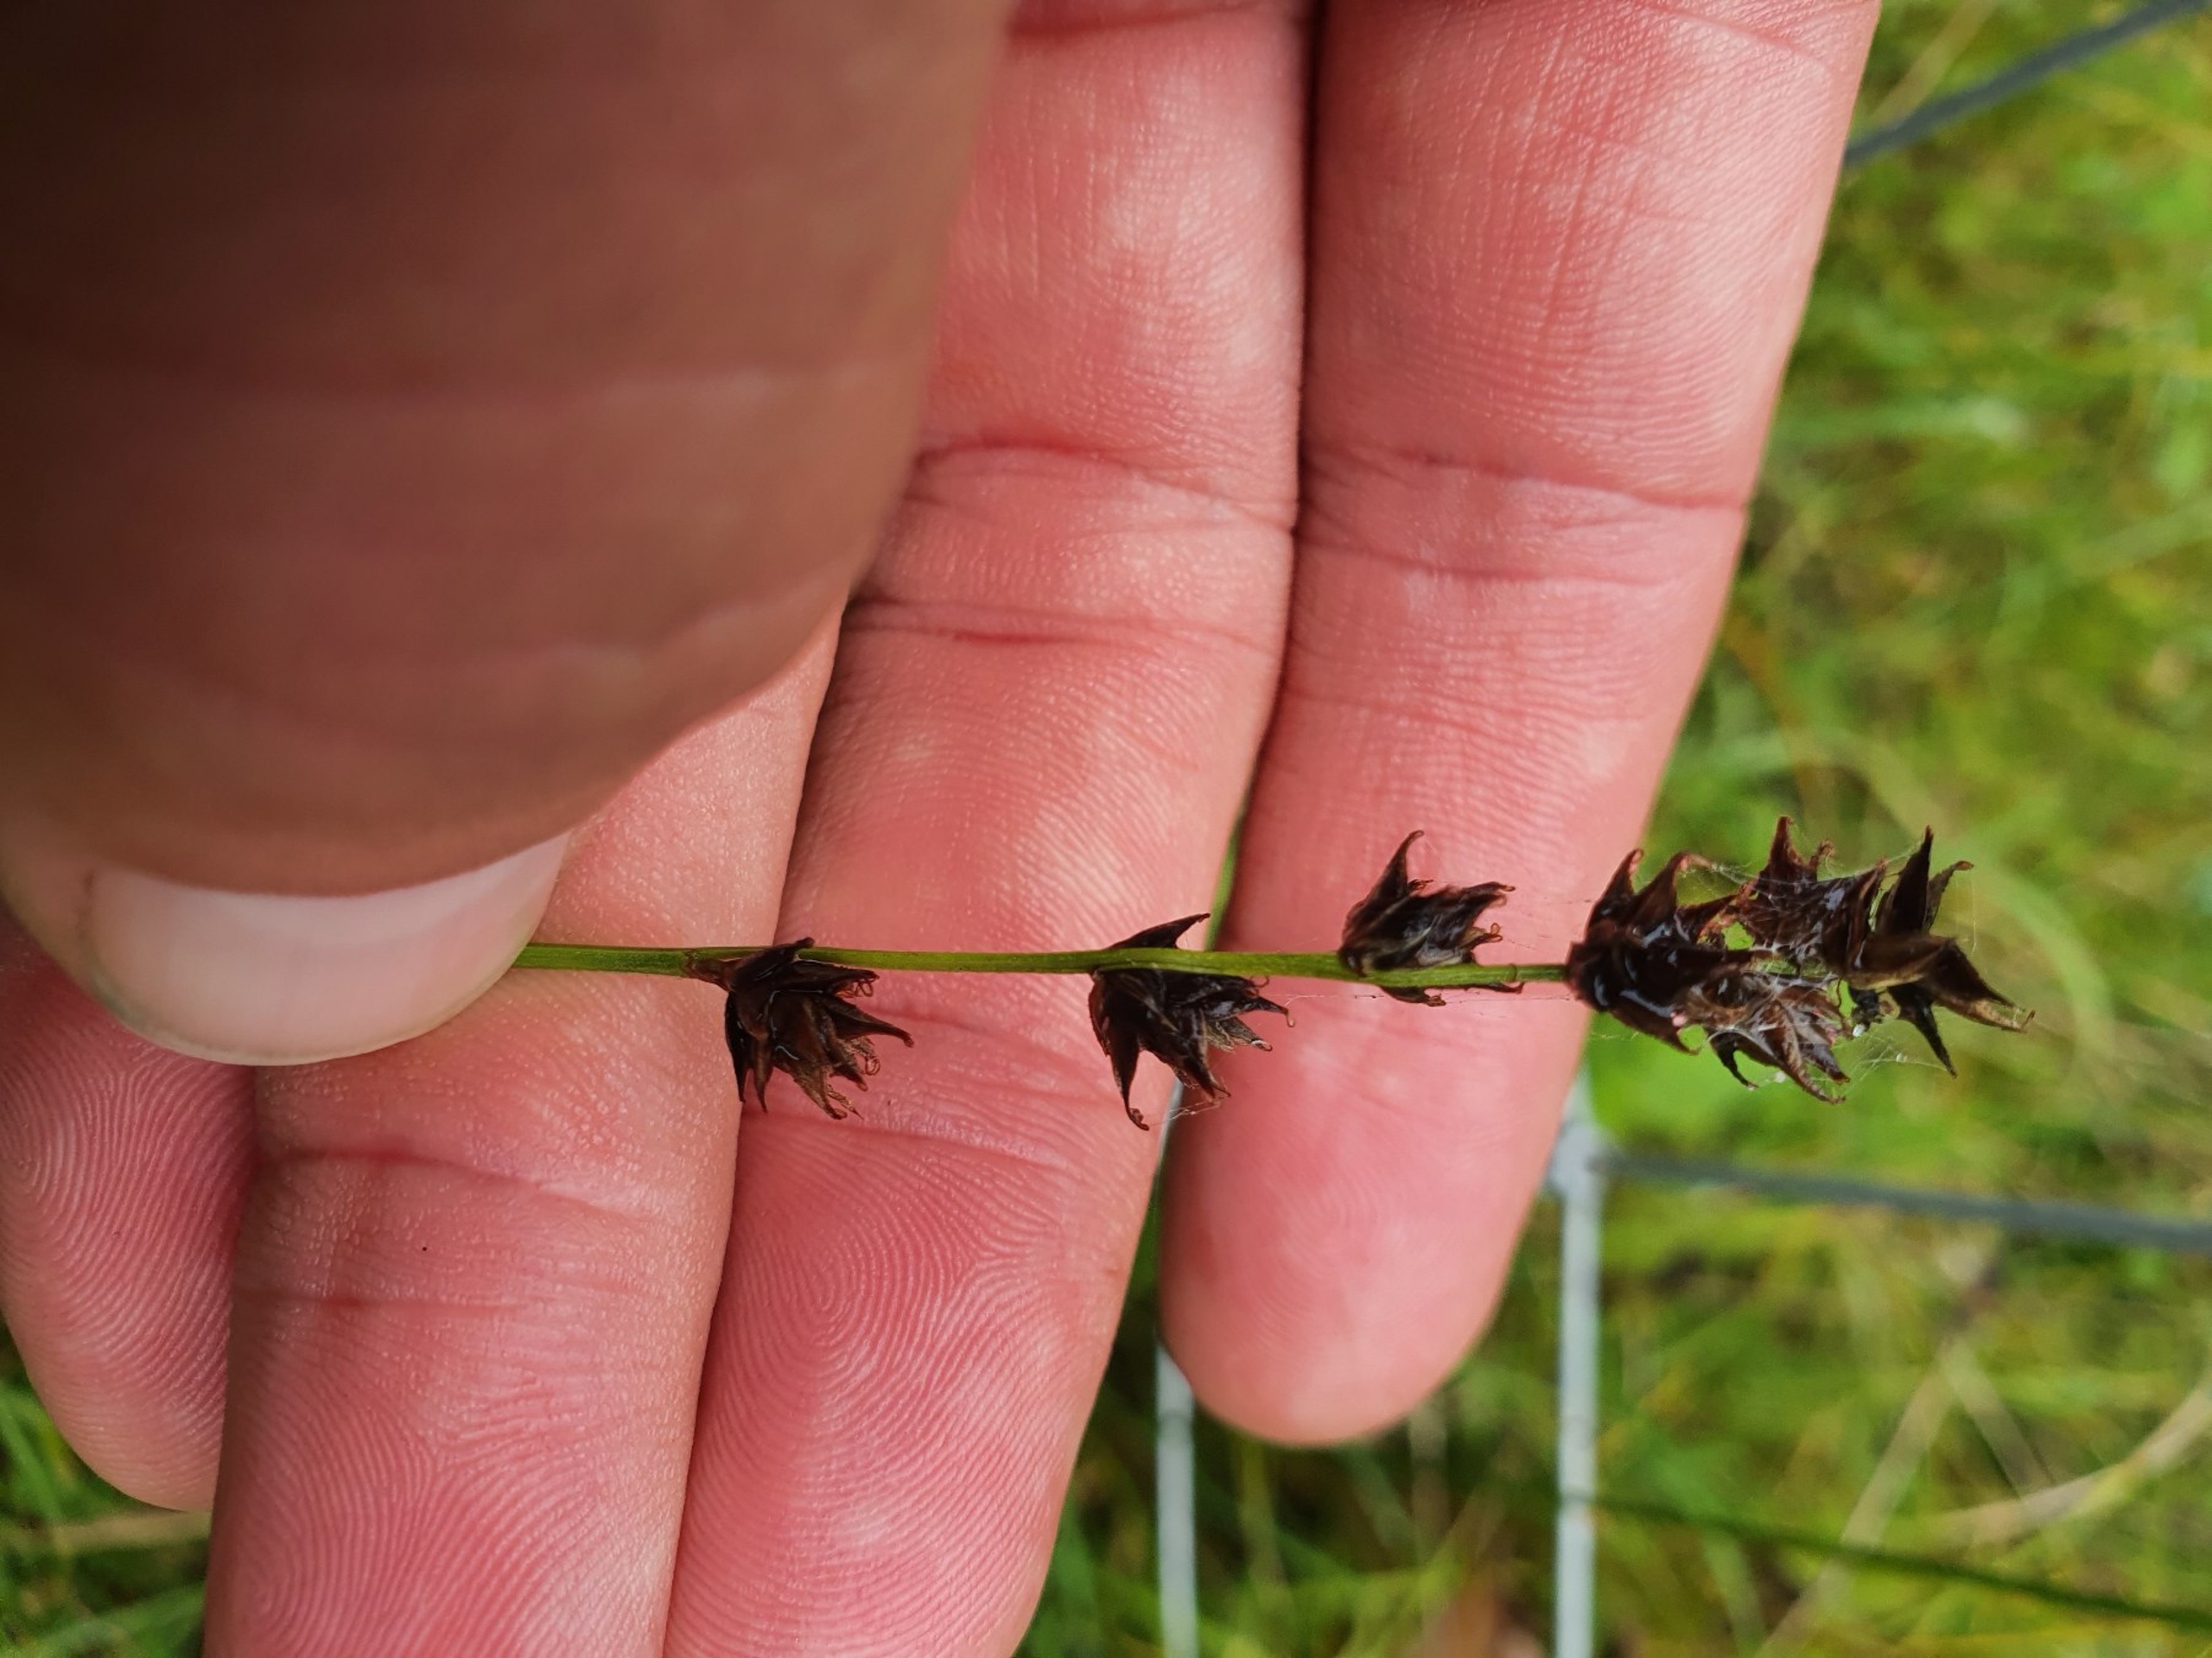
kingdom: Plantae
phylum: Tracheophyta
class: Liliopsida
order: Poales
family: Cyperaceae
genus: Carex
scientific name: Carex divulsa
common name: Mellembrudt star
